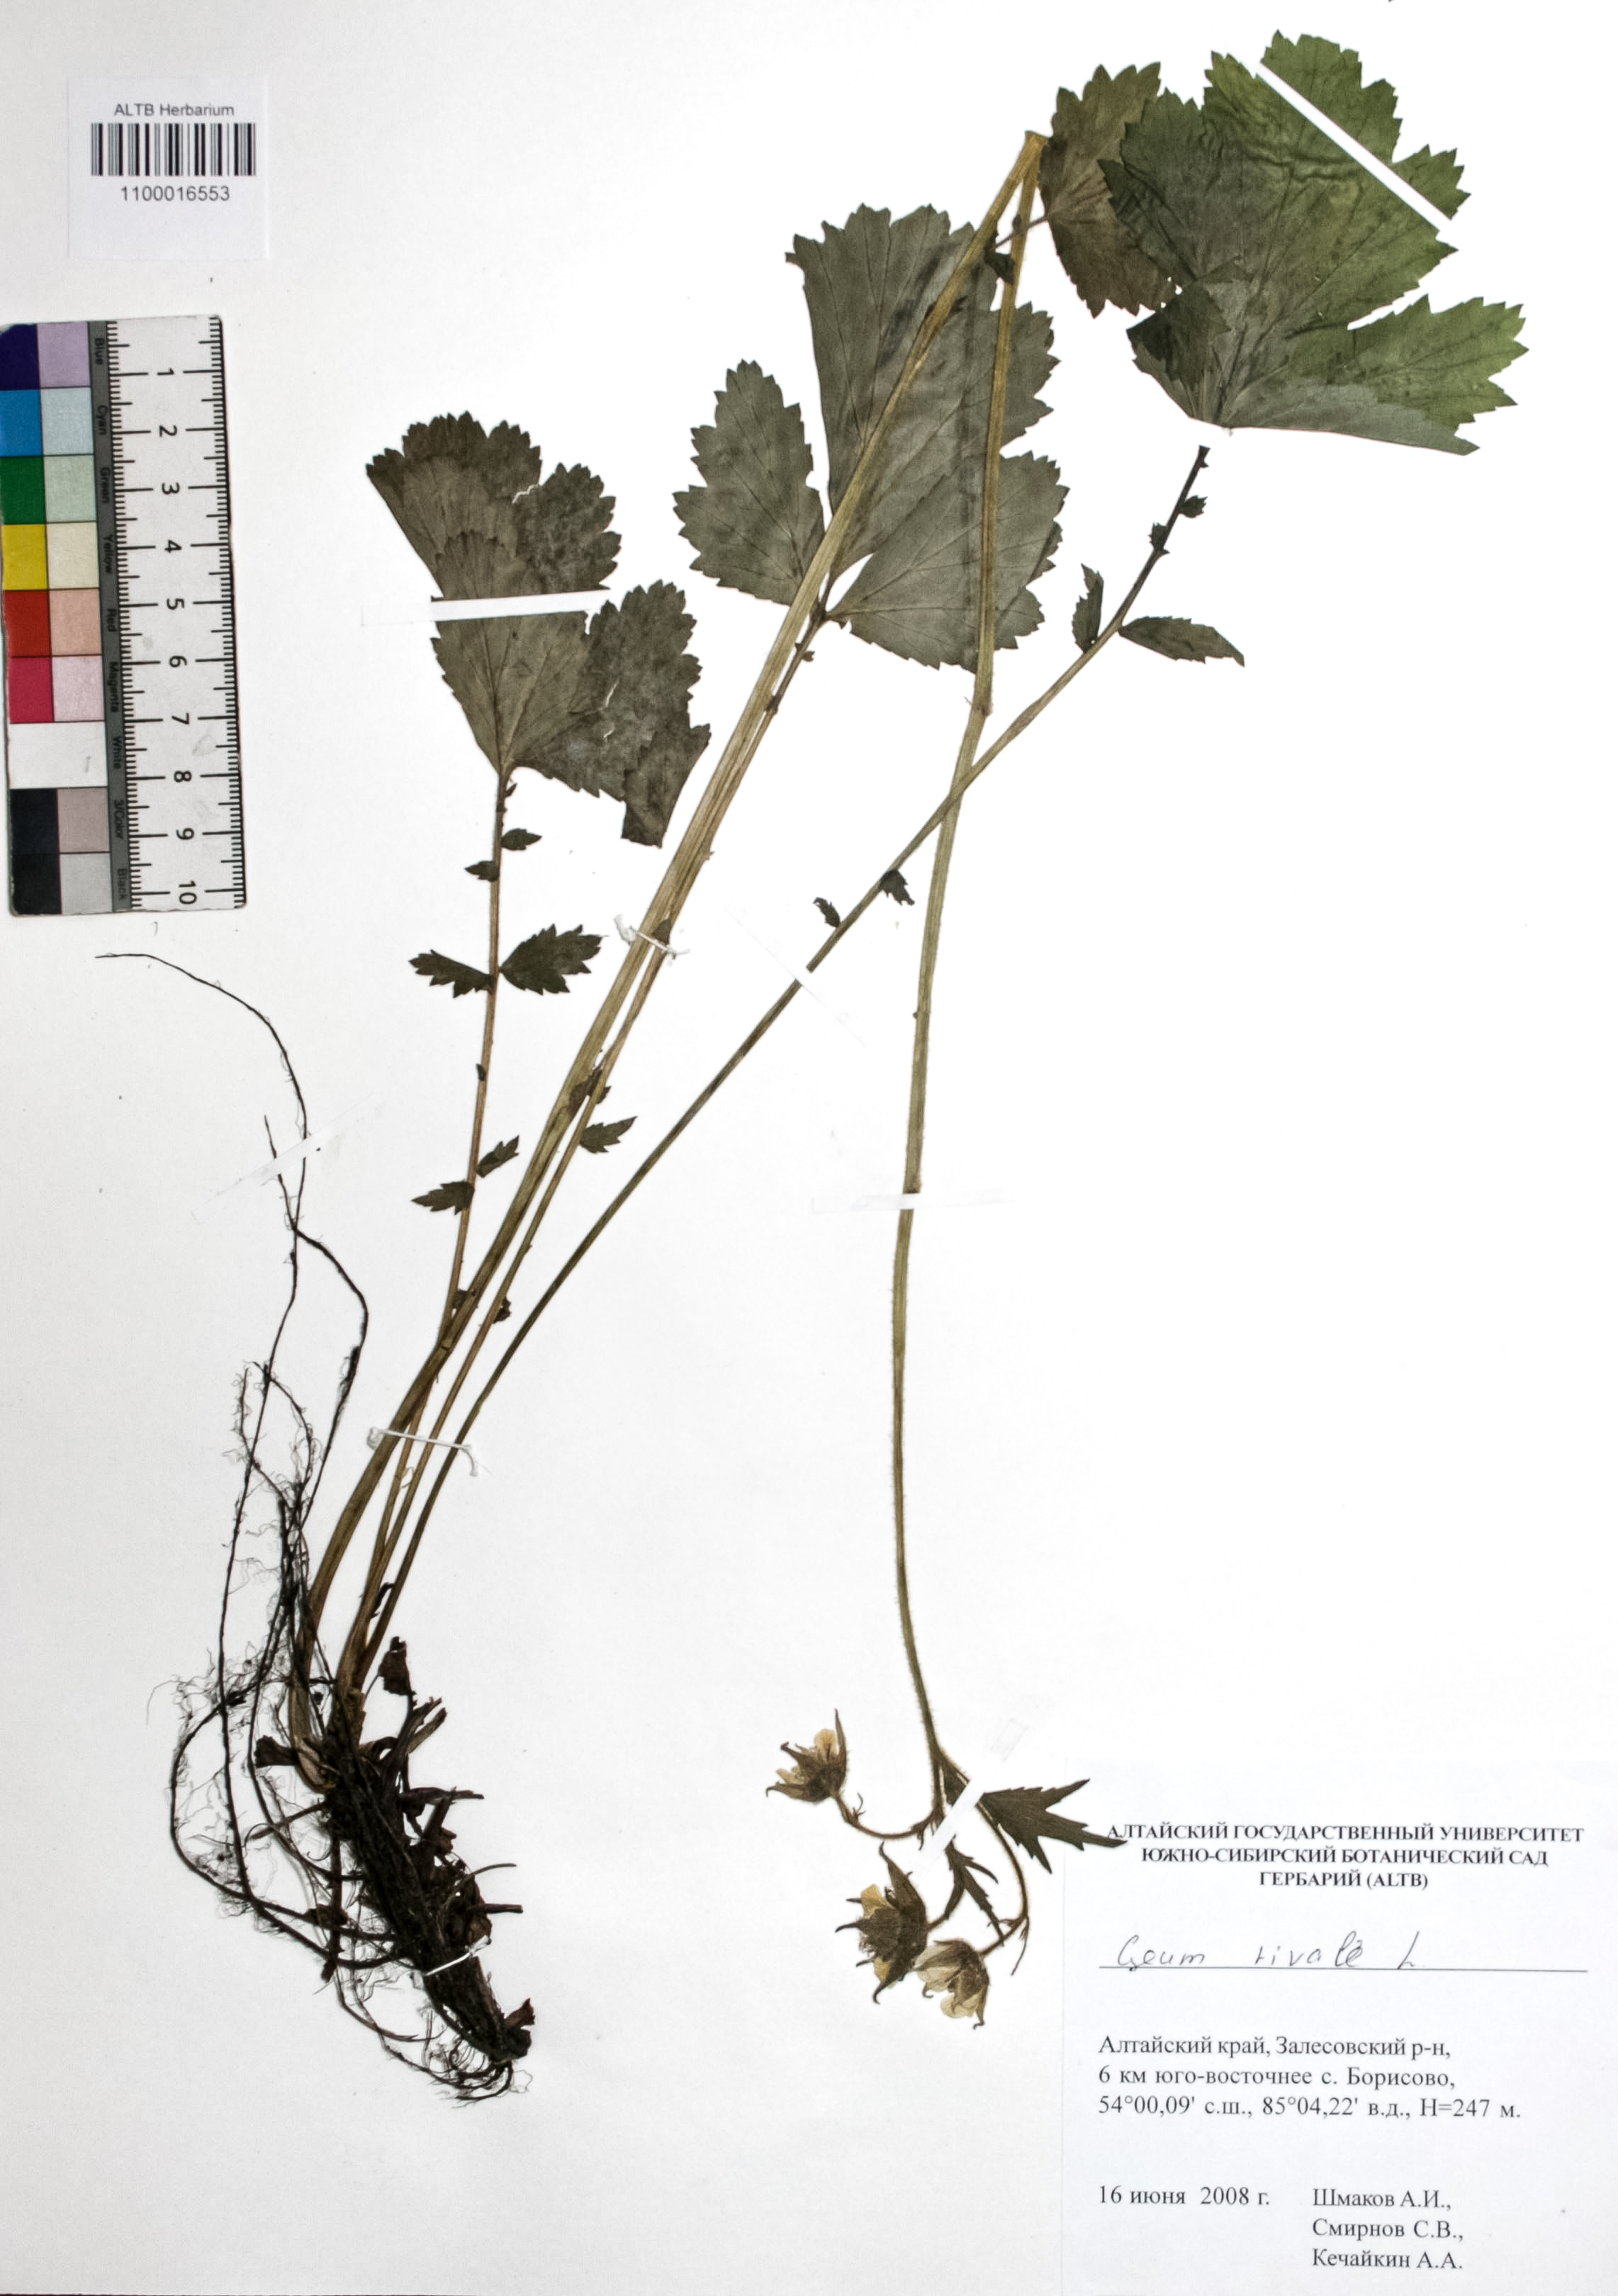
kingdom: Plantae
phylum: Tracheophyta
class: Magnoliopsida
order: Rosales
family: Rosaceae
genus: Geum
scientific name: Geum rivale
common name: Water avens
